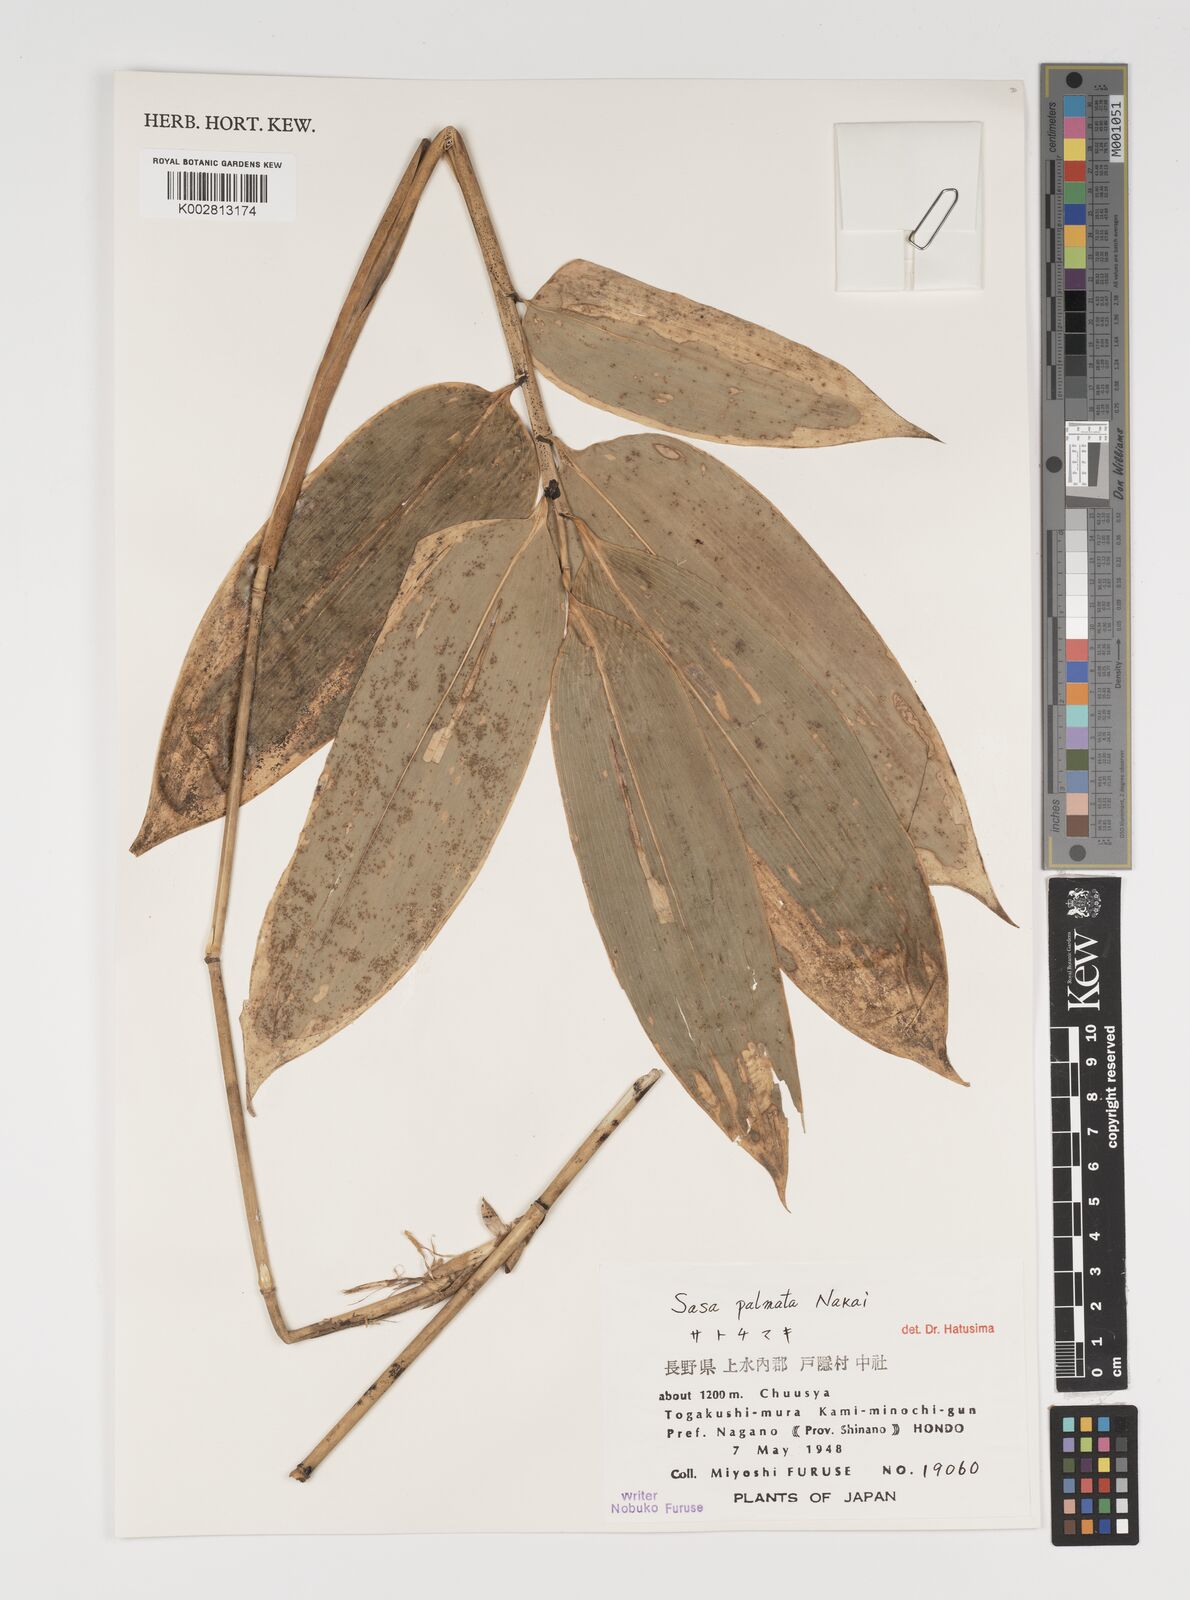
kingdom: Plantae
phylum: Tracheophyta
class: Liliopsida
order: Poales
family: Poaceae
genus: Sasa
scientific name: Sasa palmata
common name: Broad-leaved bamboo
